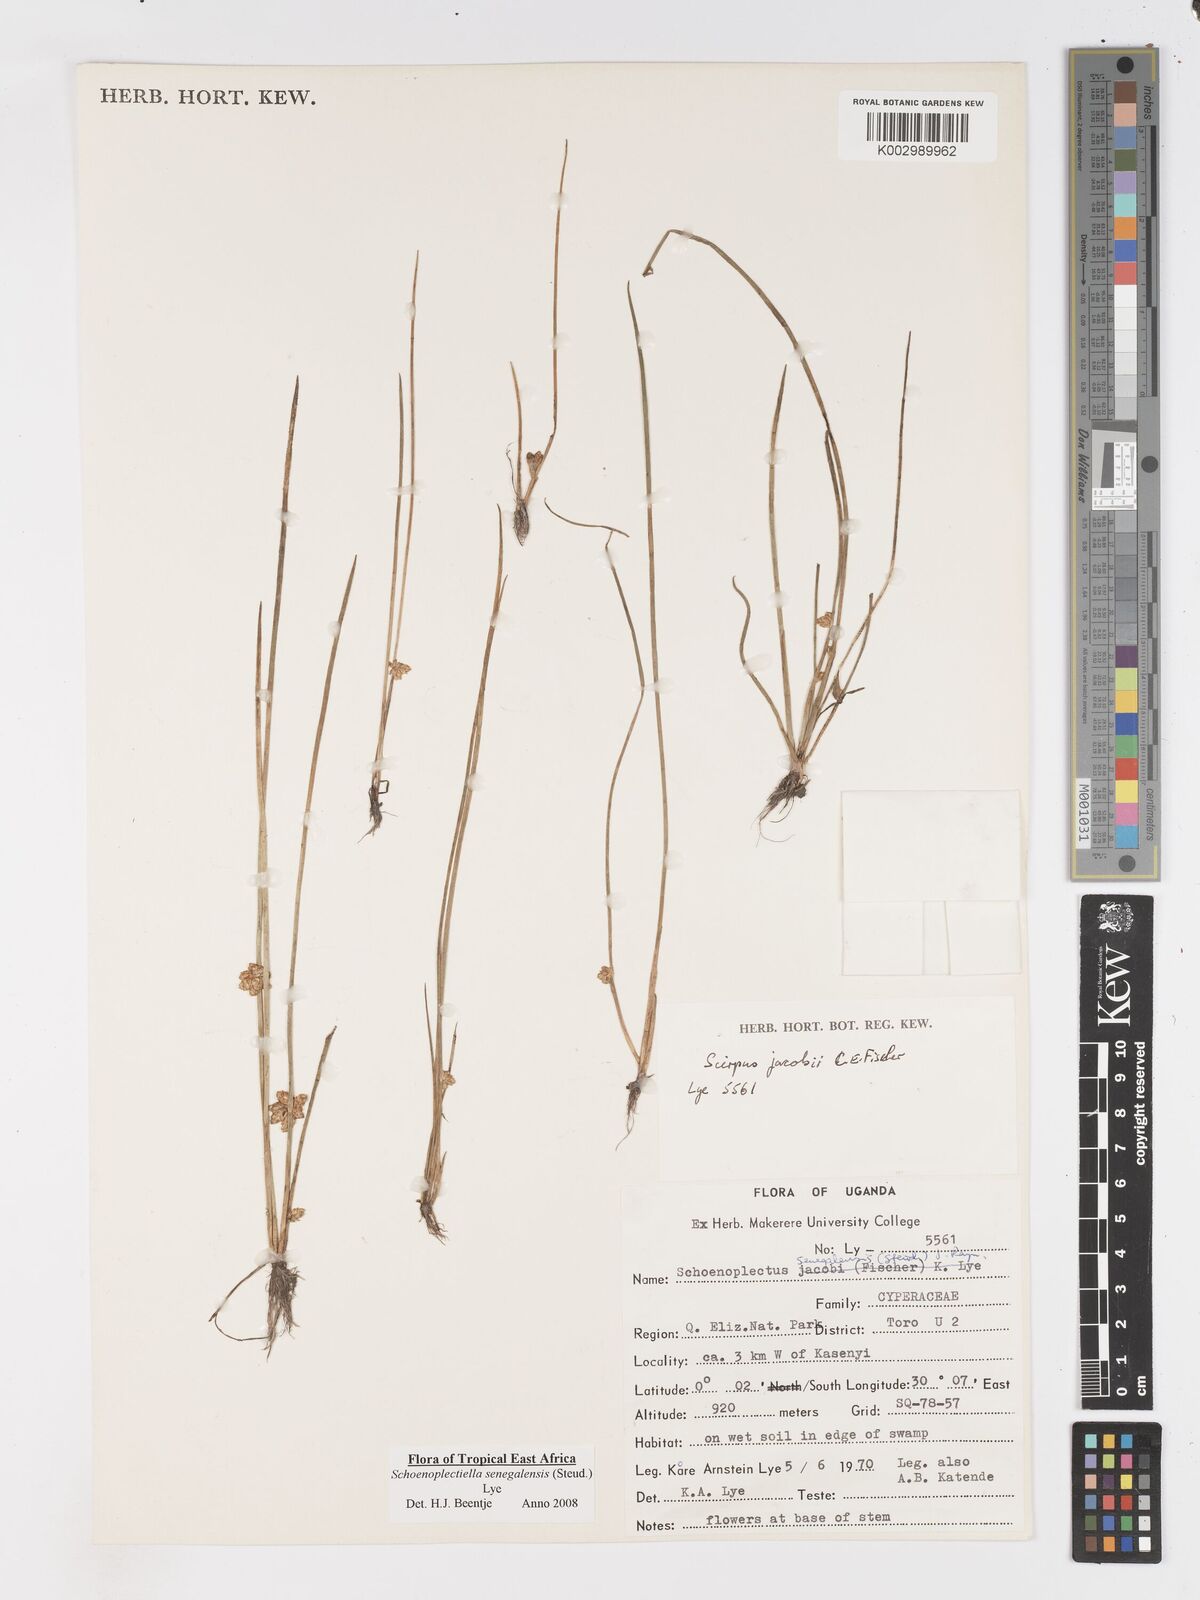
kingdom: Plantae
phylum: Tracheophyta
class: Liliopsida
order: Poales
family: Cyperaceae
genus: Schoenoplectiella
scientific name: Schoenoplectiella senegalensis
